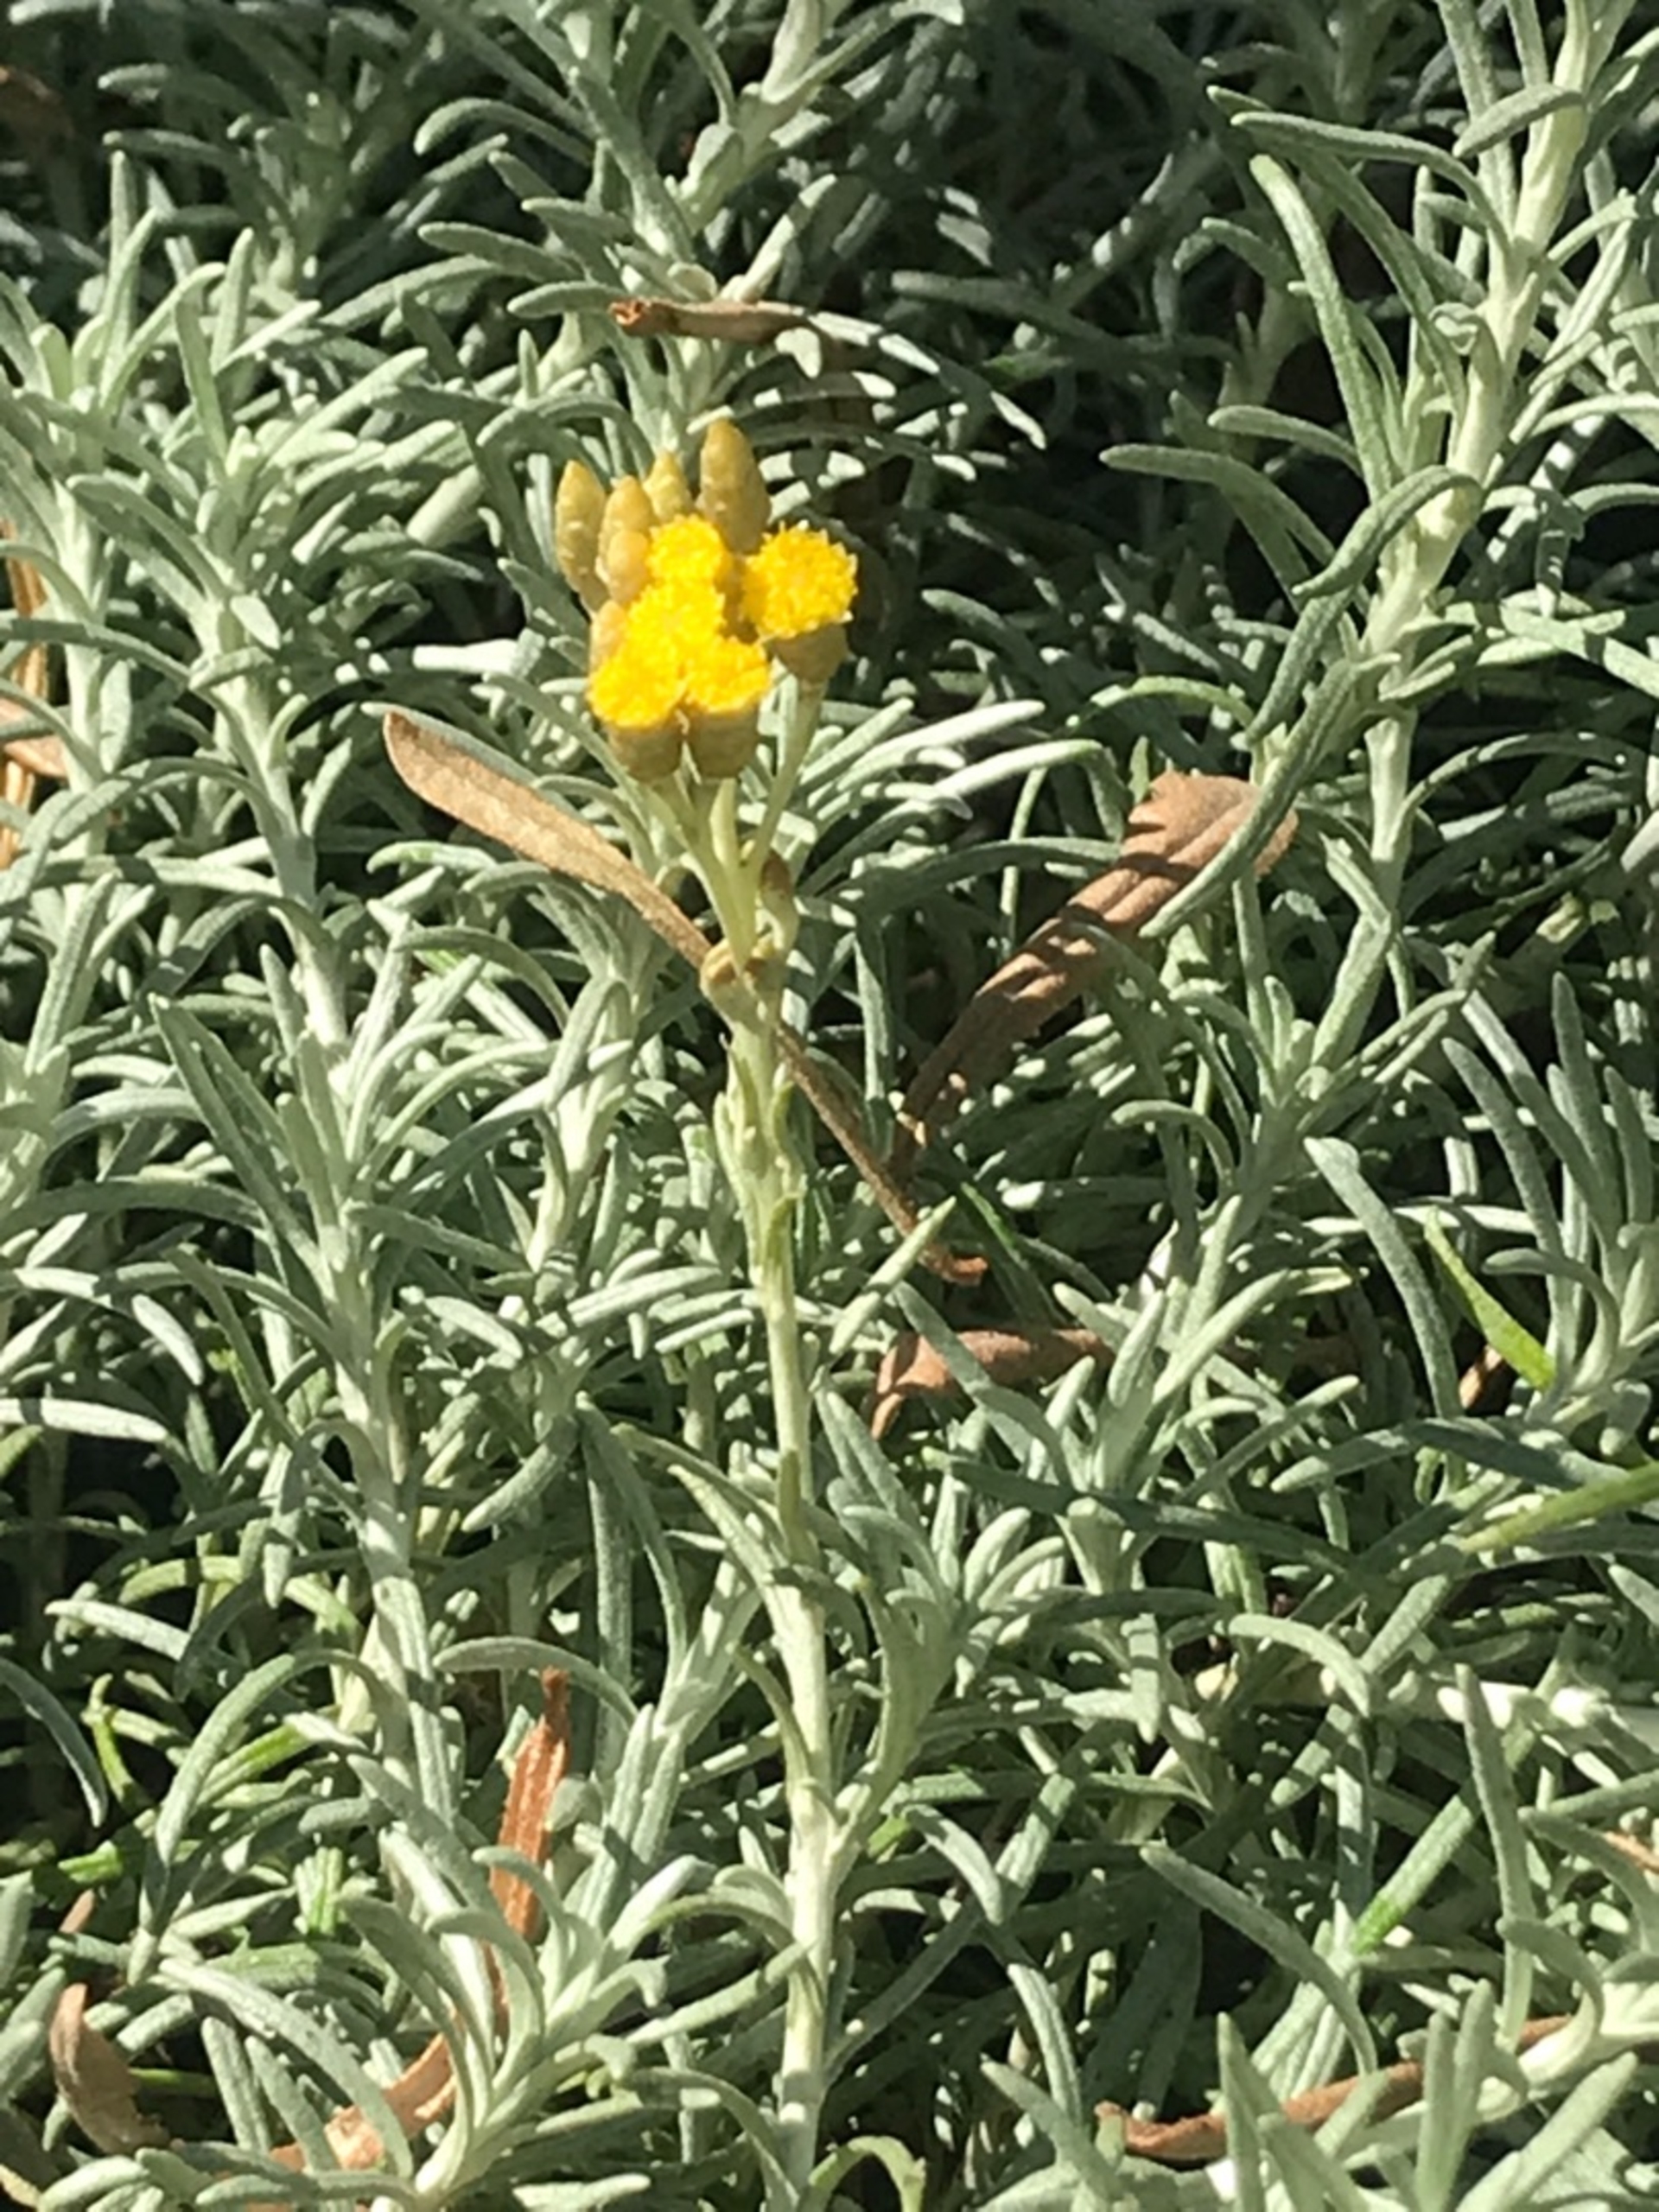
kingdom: Plantae
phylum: Tracheophyta
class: Magnoliopsida
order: Asterales
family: Asteraceae
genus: Helichrysum
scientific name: Helichrysum italicum
